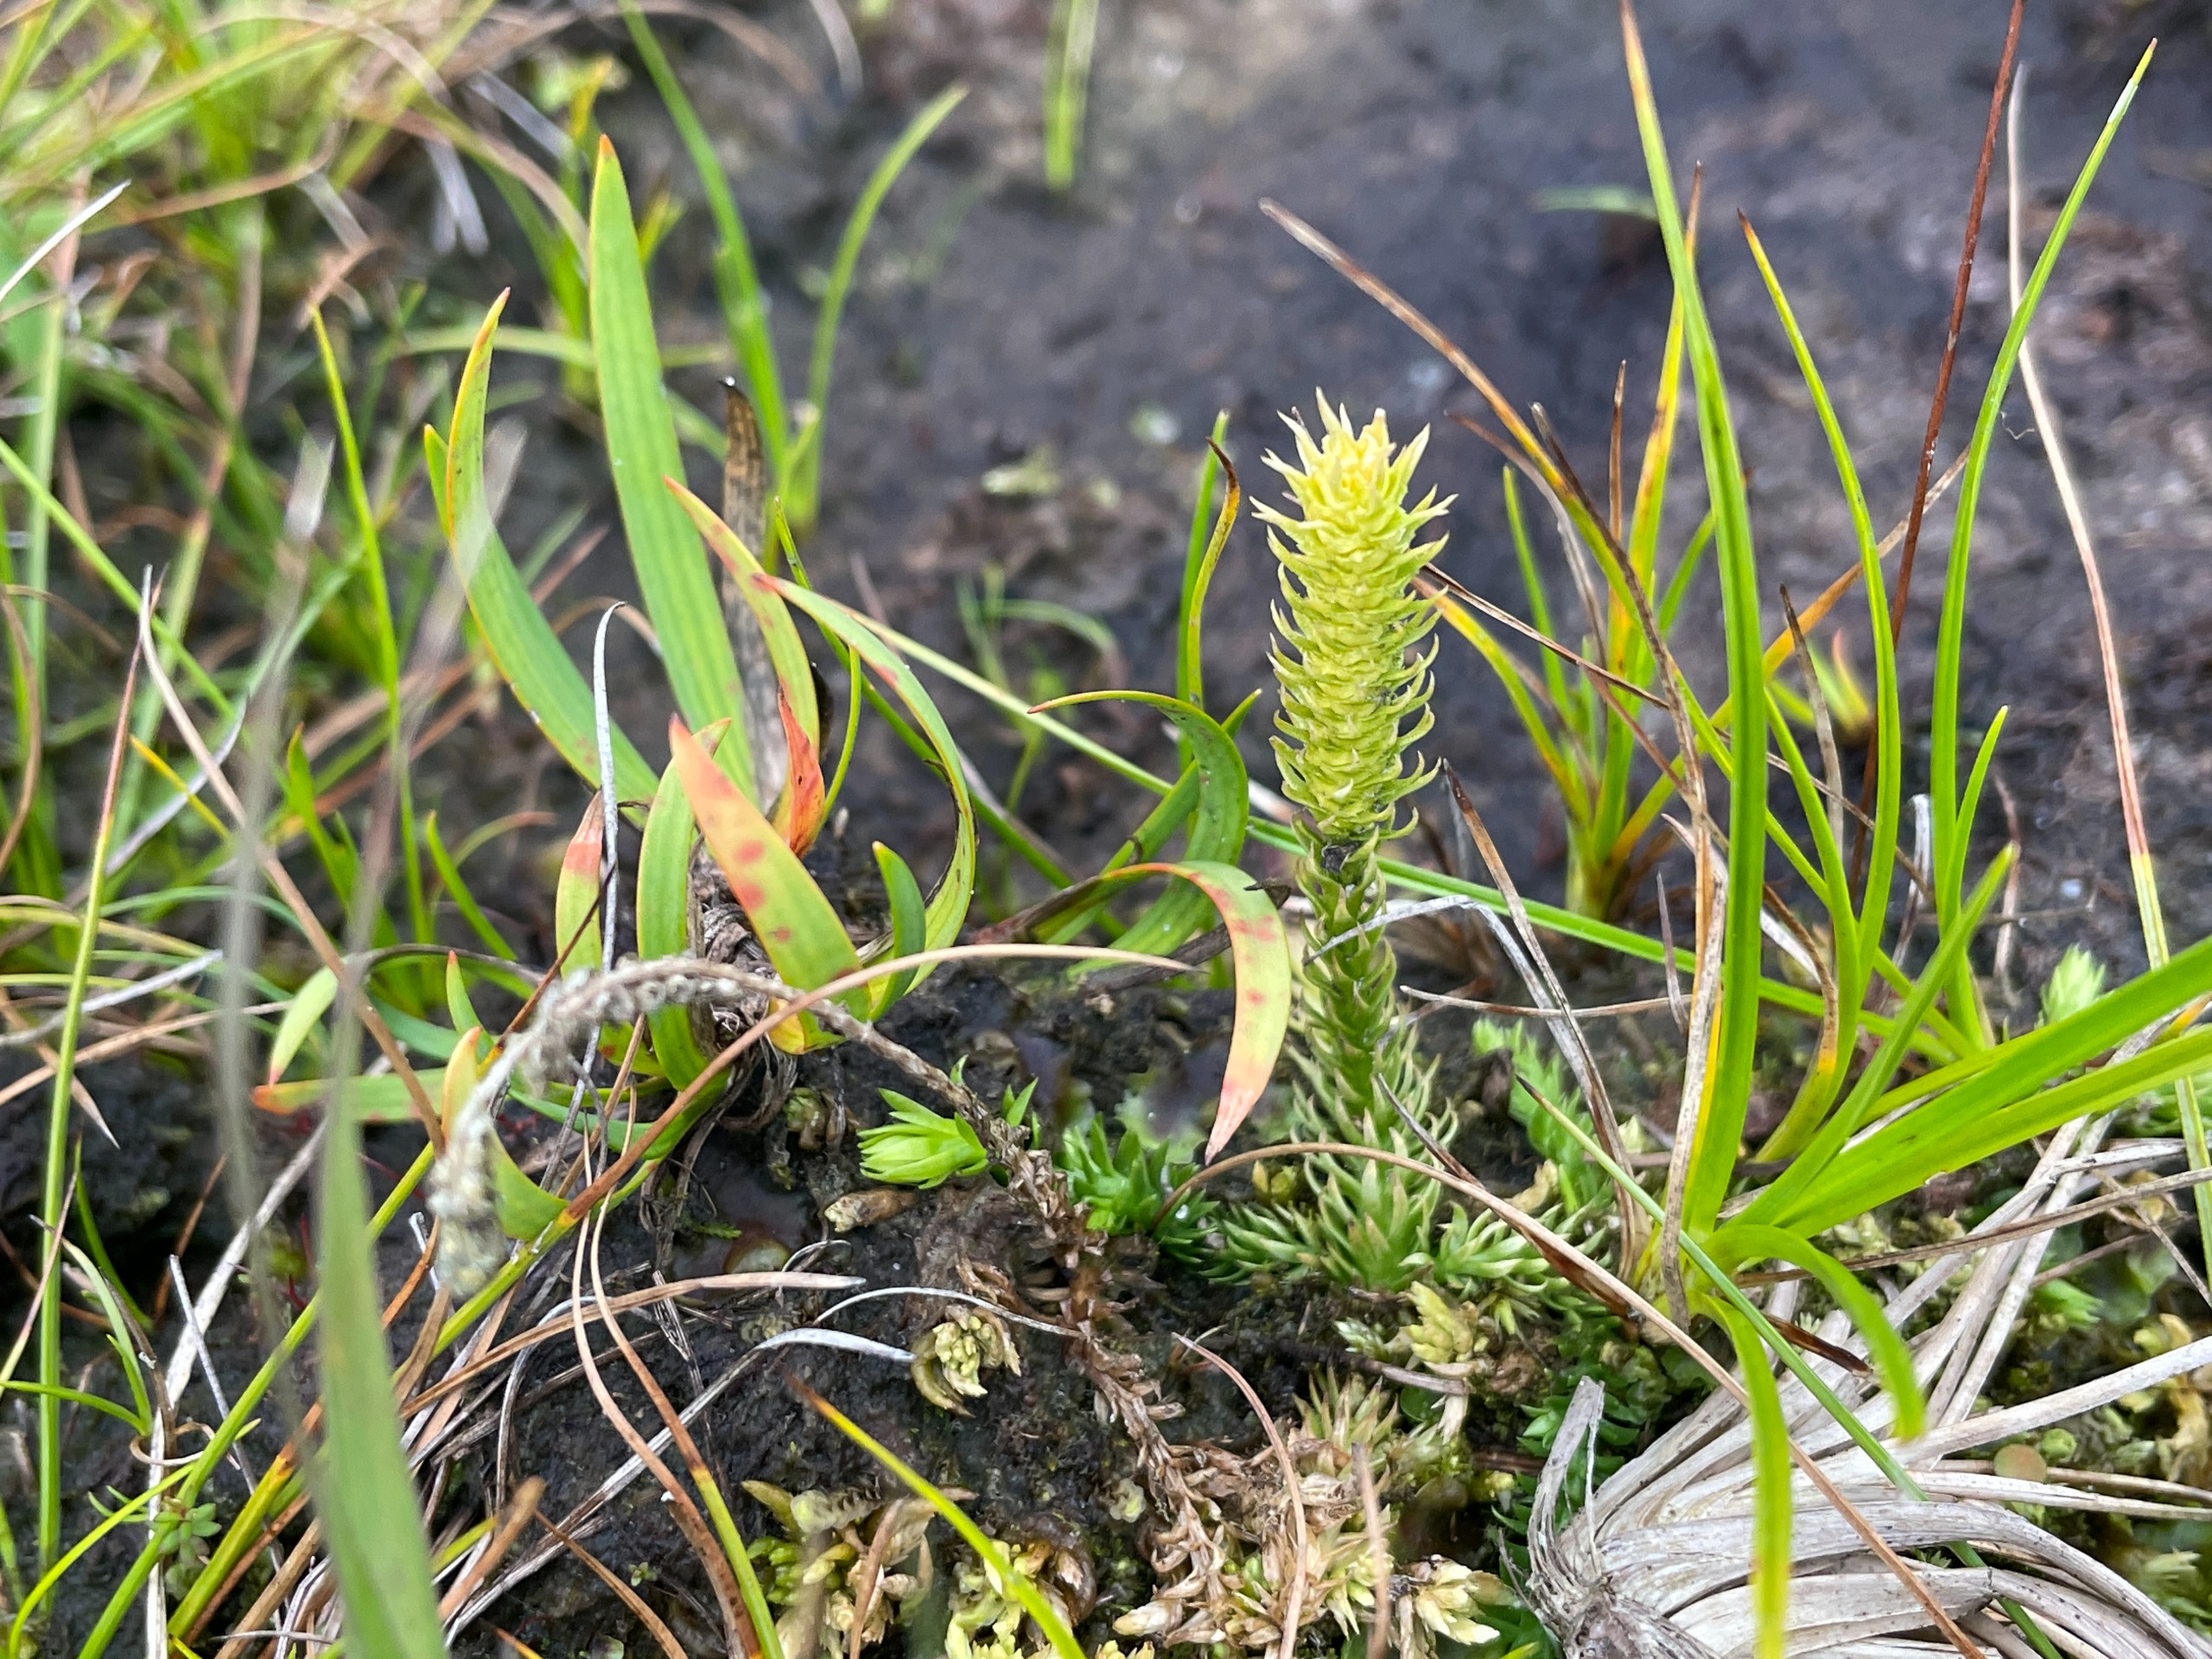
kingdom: Plantae
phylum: Tracheophyta
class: Lycopodiopsida
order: Lycopodiales
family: Lycopodiaceae
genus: Lycopodiella
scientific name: Lycopodiella inundata
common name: Liden ulvefod
